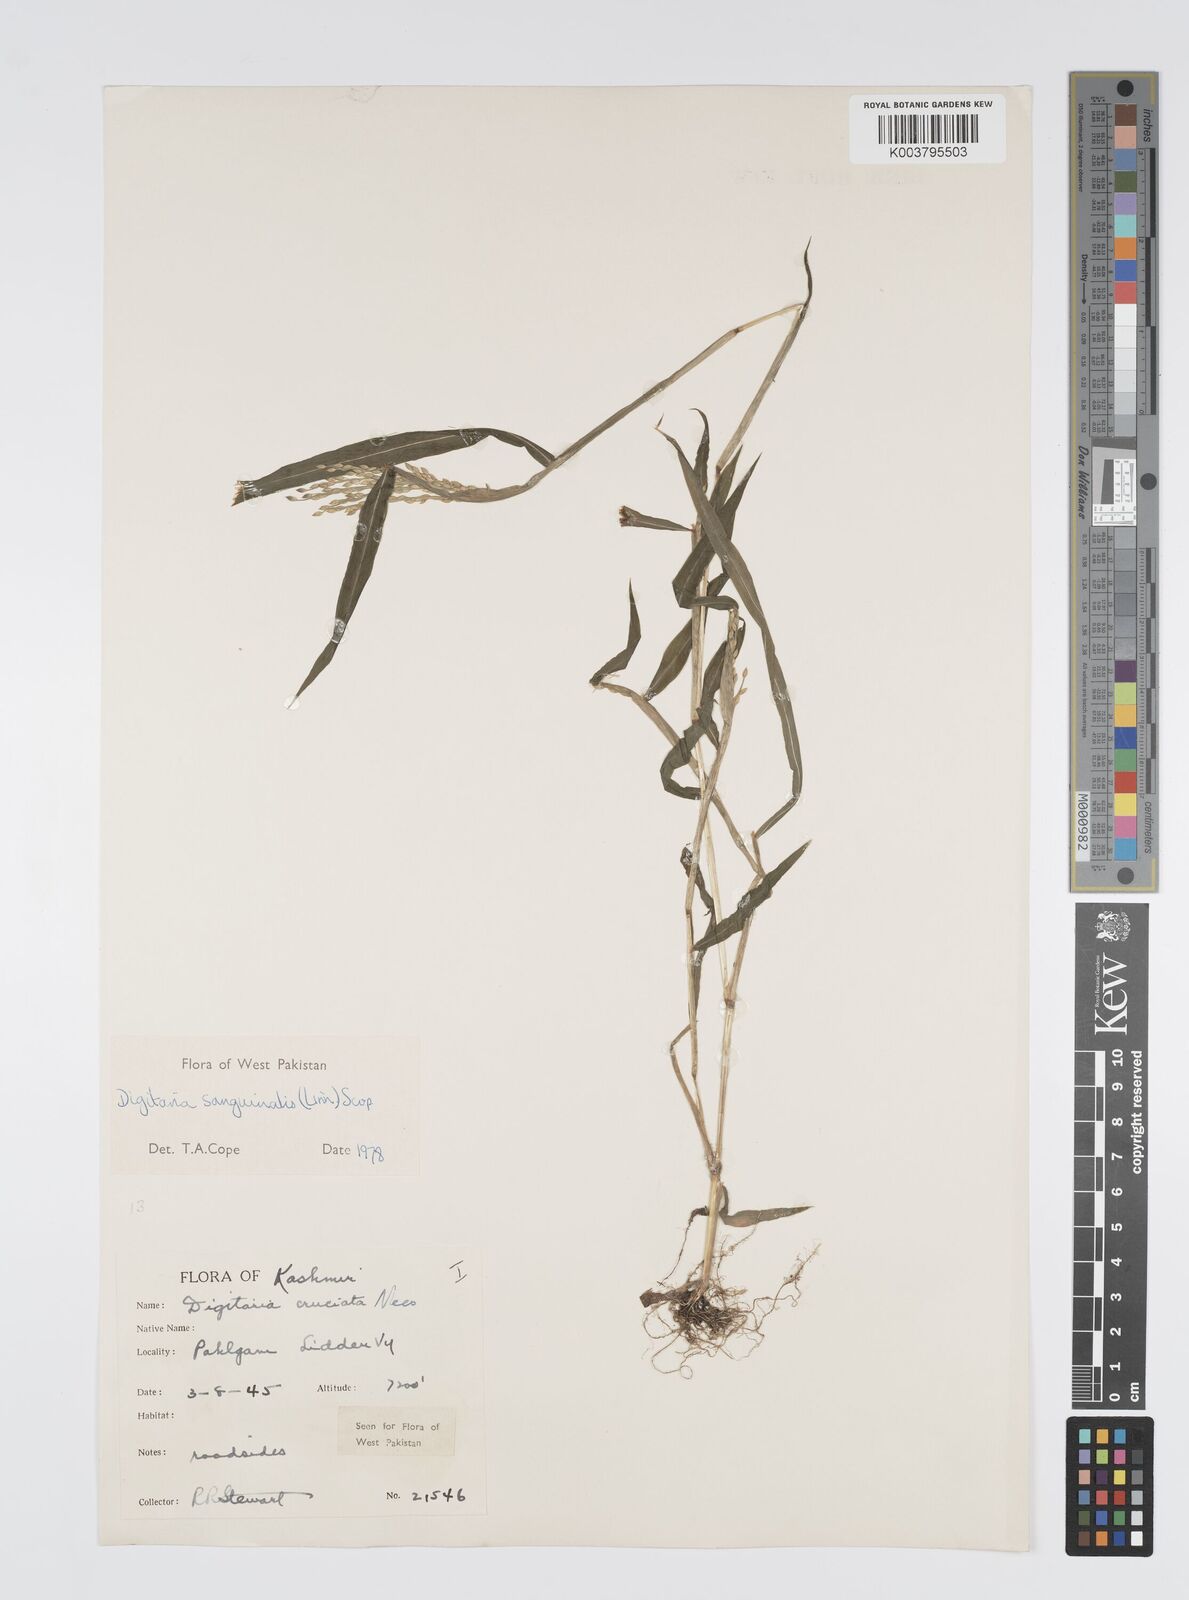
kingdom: Plantae
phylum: Tracheophyta
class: Liliopsida
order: Poales
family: Poaceae
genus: Digitaria
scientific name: Digitaria sanguinalis
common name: Hairy crabgrass
